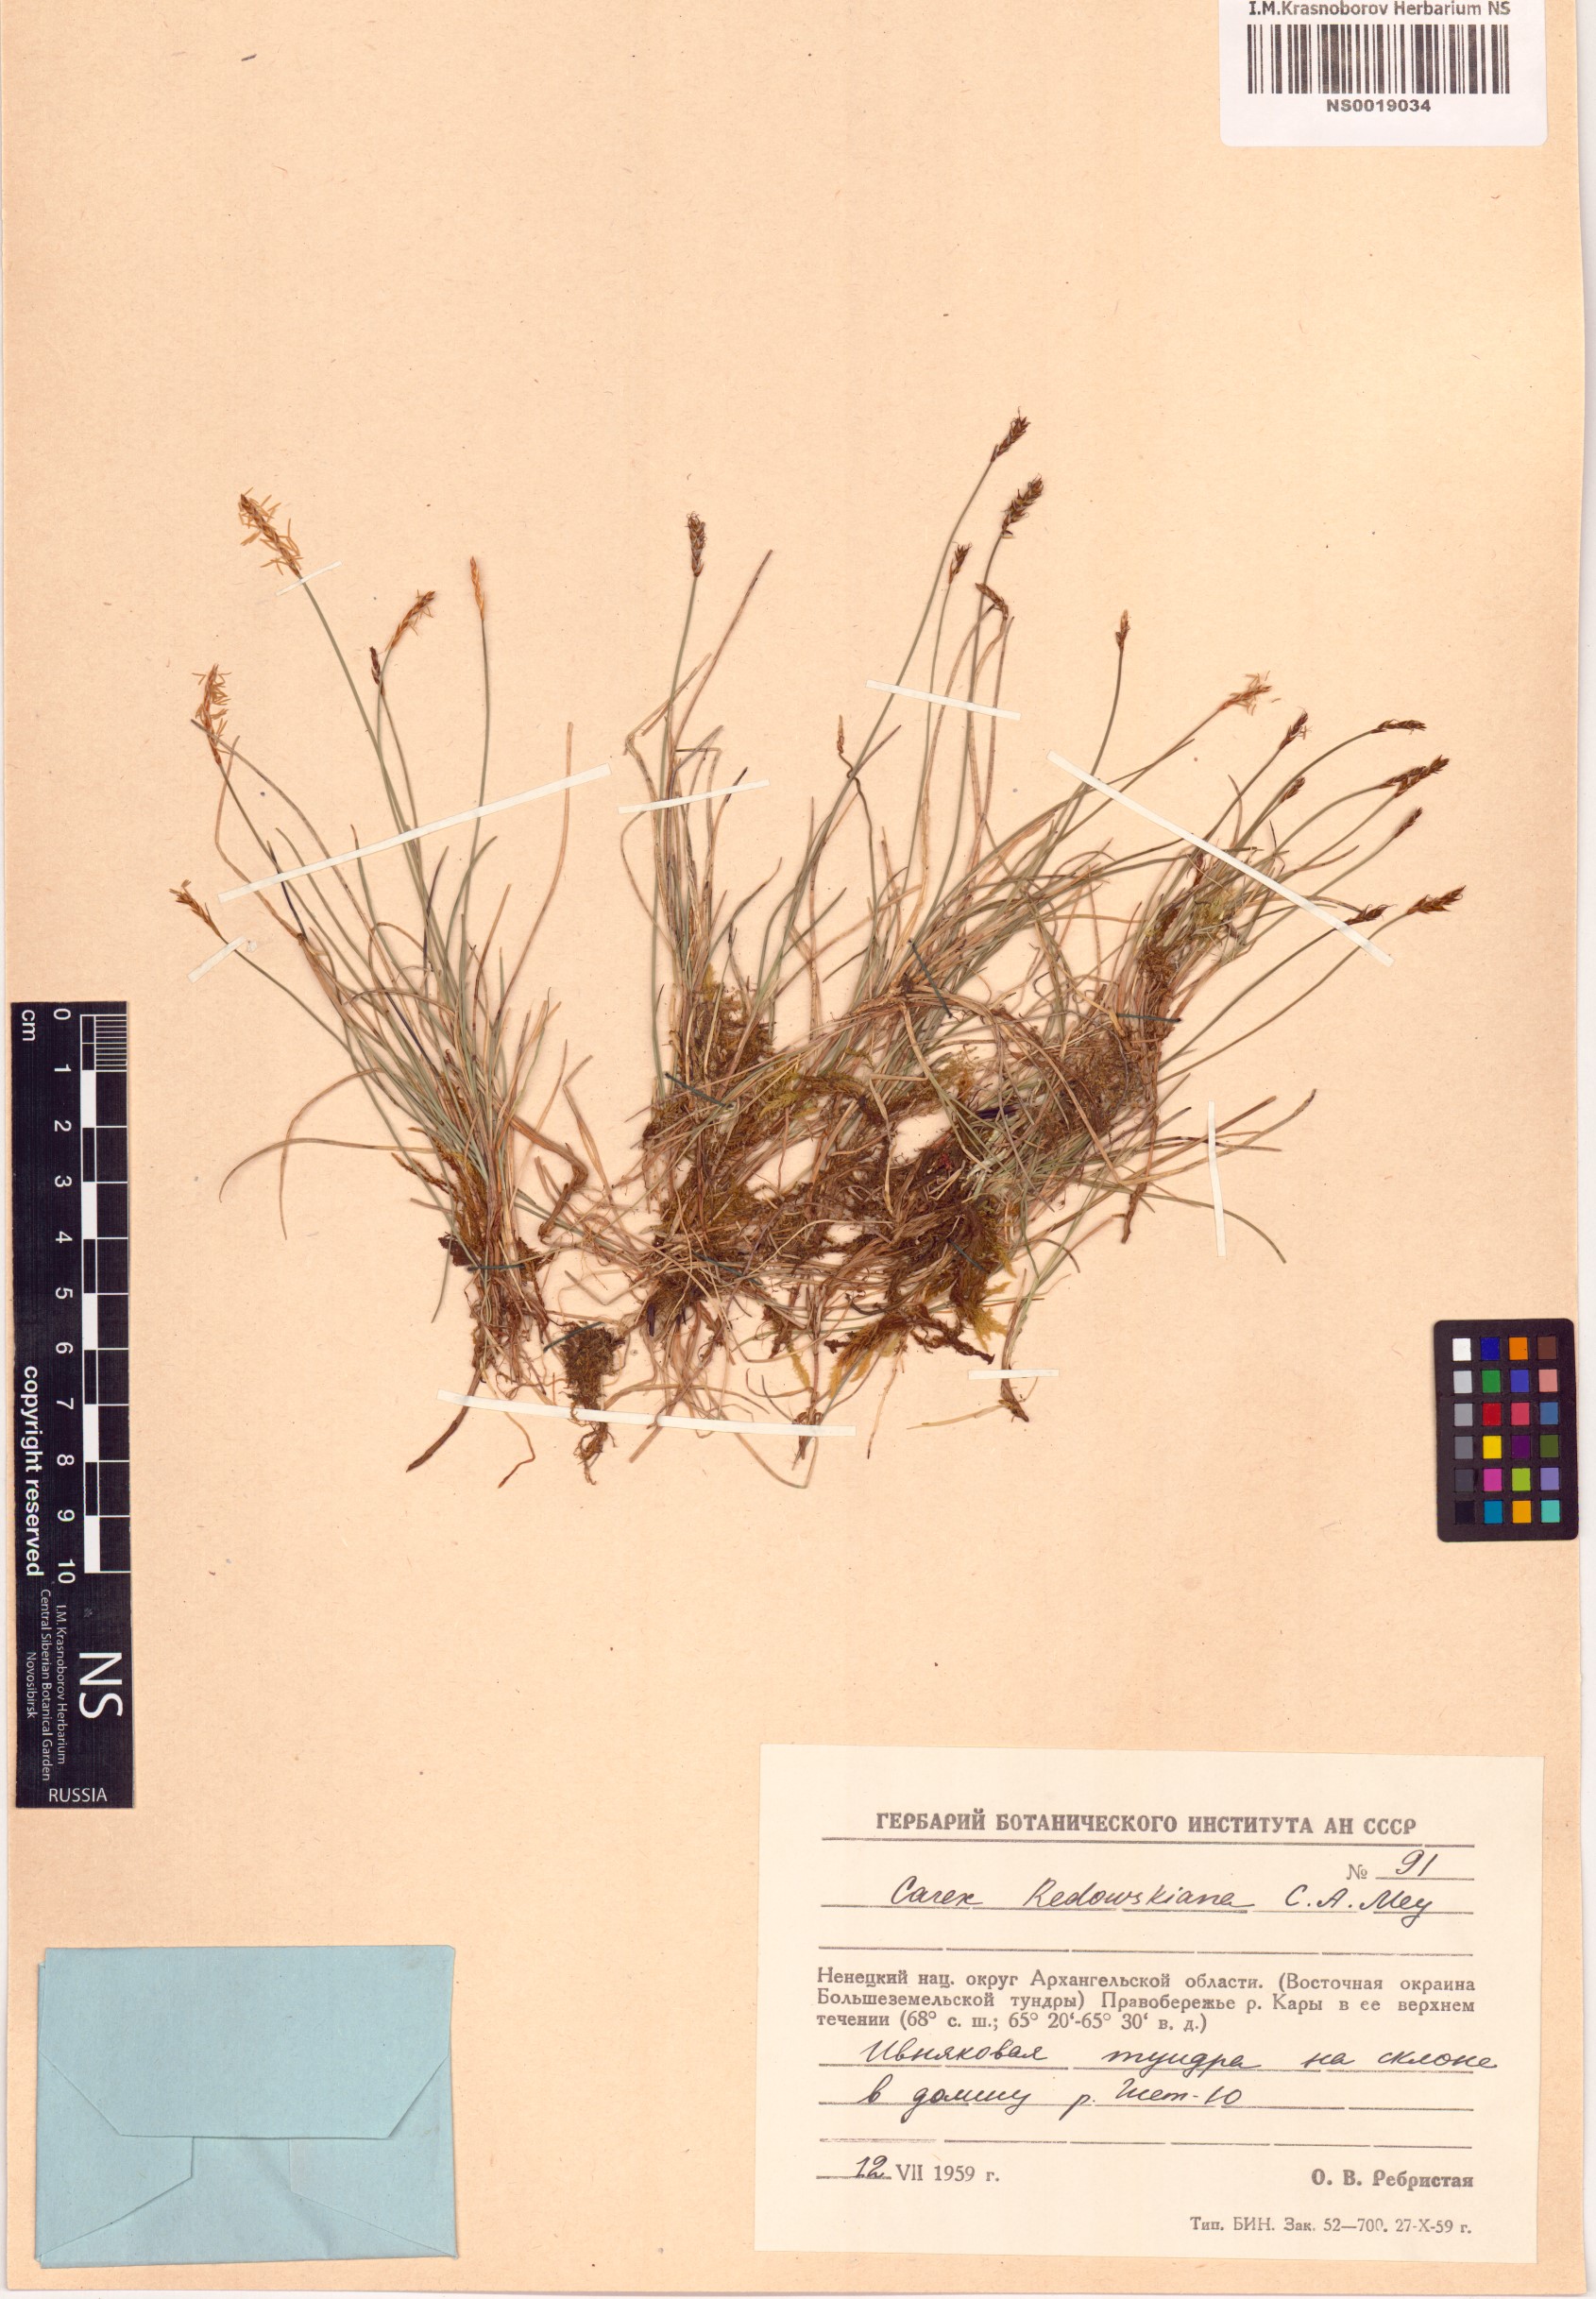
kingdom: Plantae
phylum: Tracheophyta
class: Liliopsida
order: Poales
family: Cyperaceae
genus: Carex
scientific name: Carex parallela
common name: Parallel sedge
